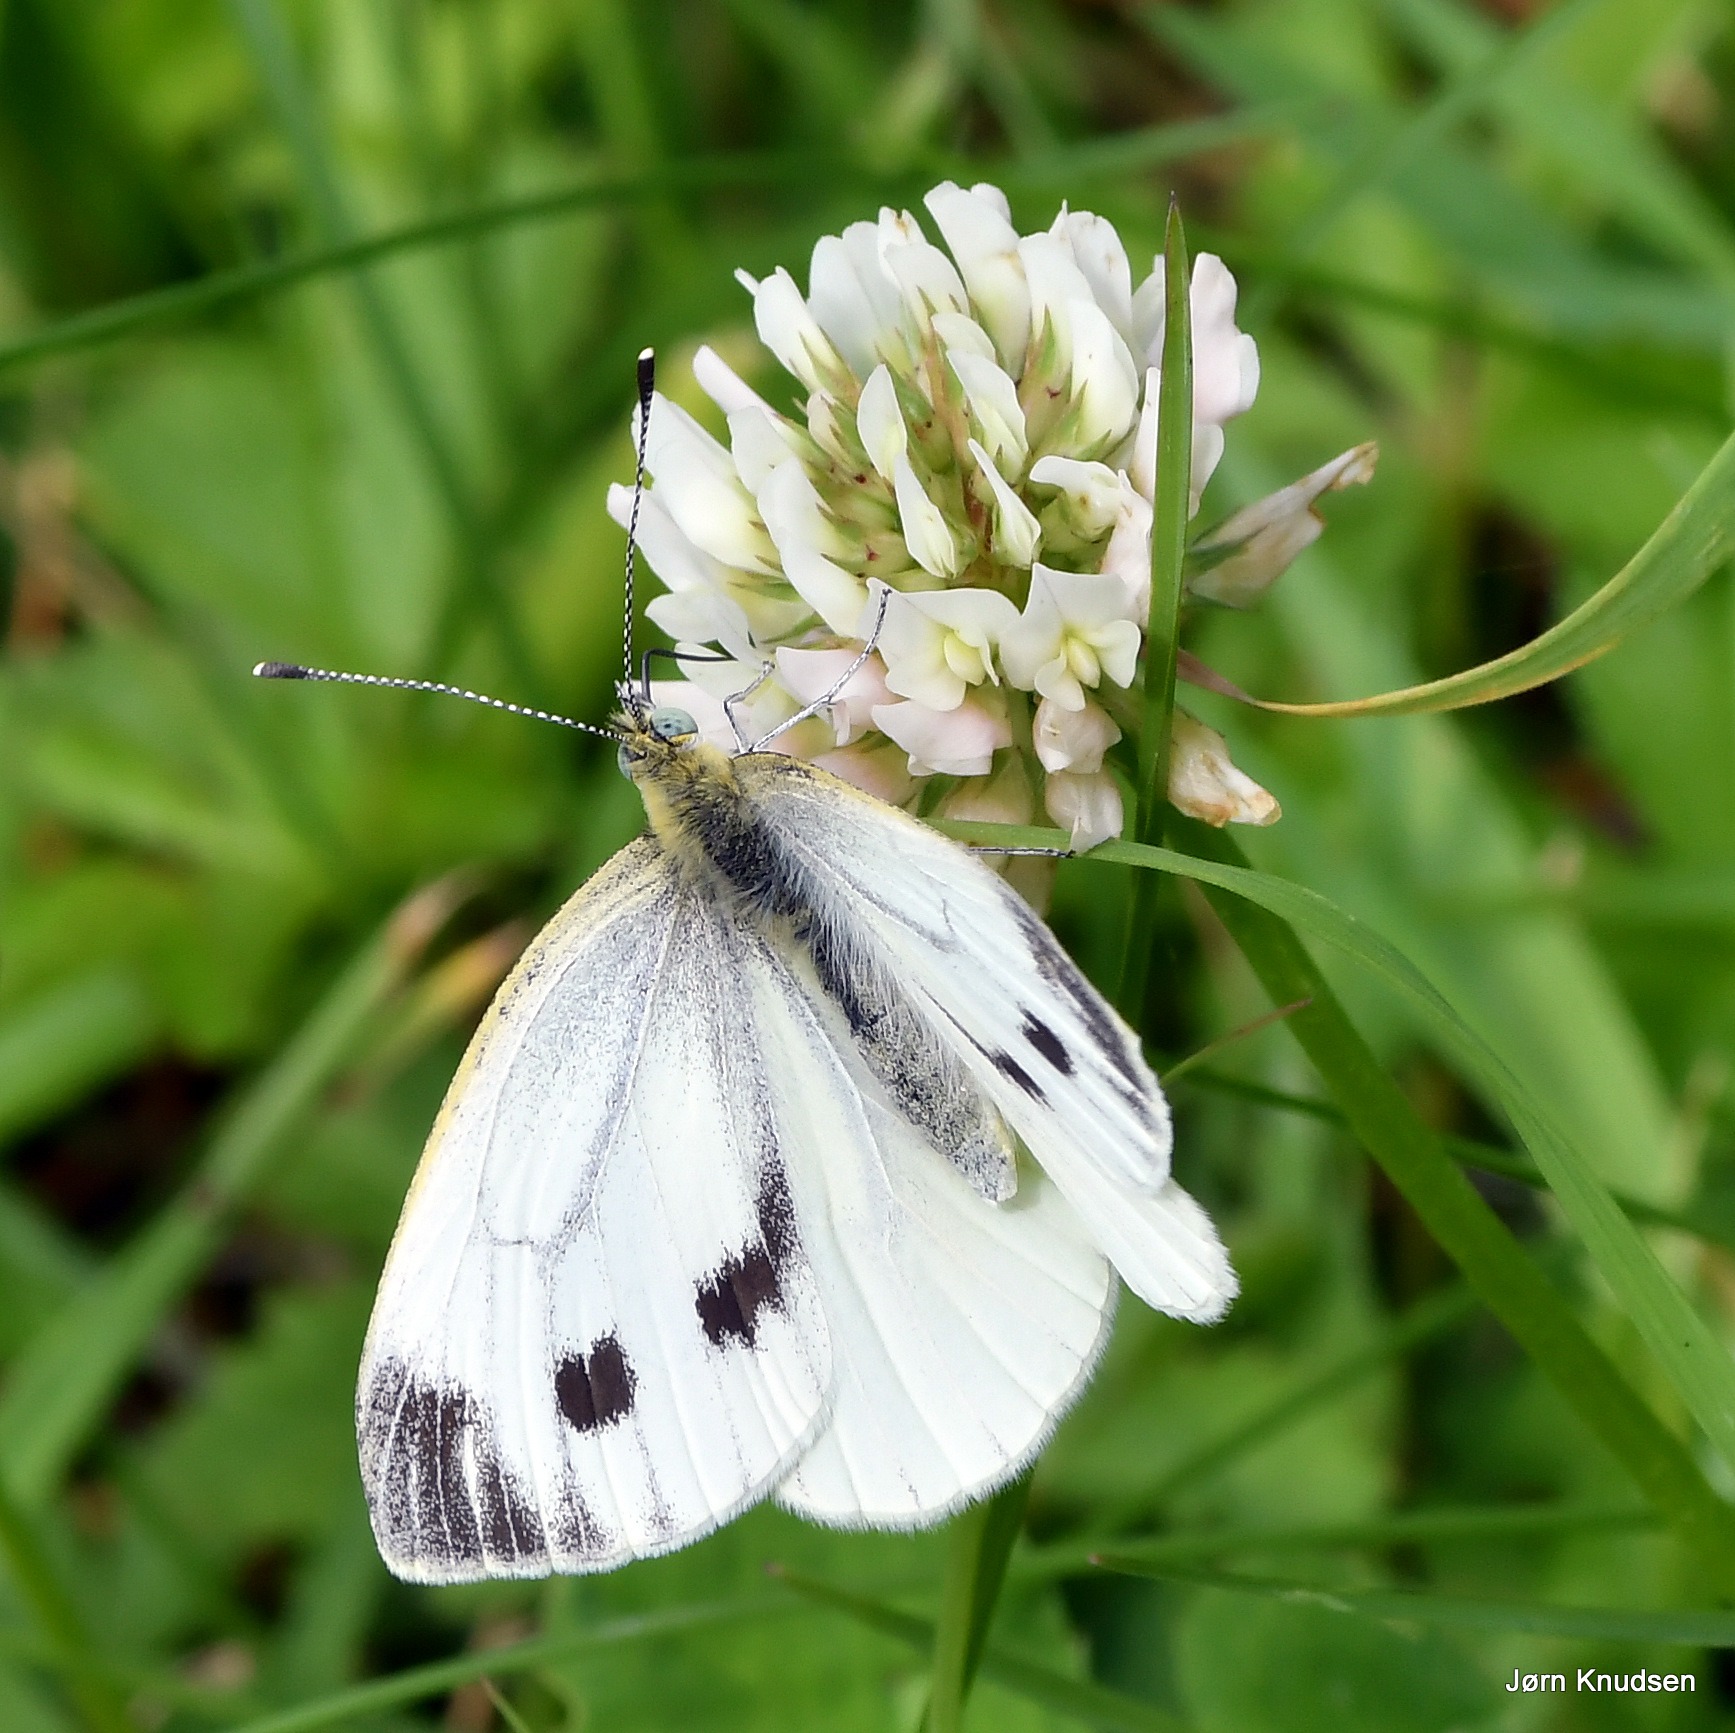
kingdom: Animalia
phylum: Arthropoda
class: Insecta
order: Lepidoptera
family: Pieridae
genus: Pieris
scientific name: Pieris napi
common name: Grønåret kålsommerfugl
